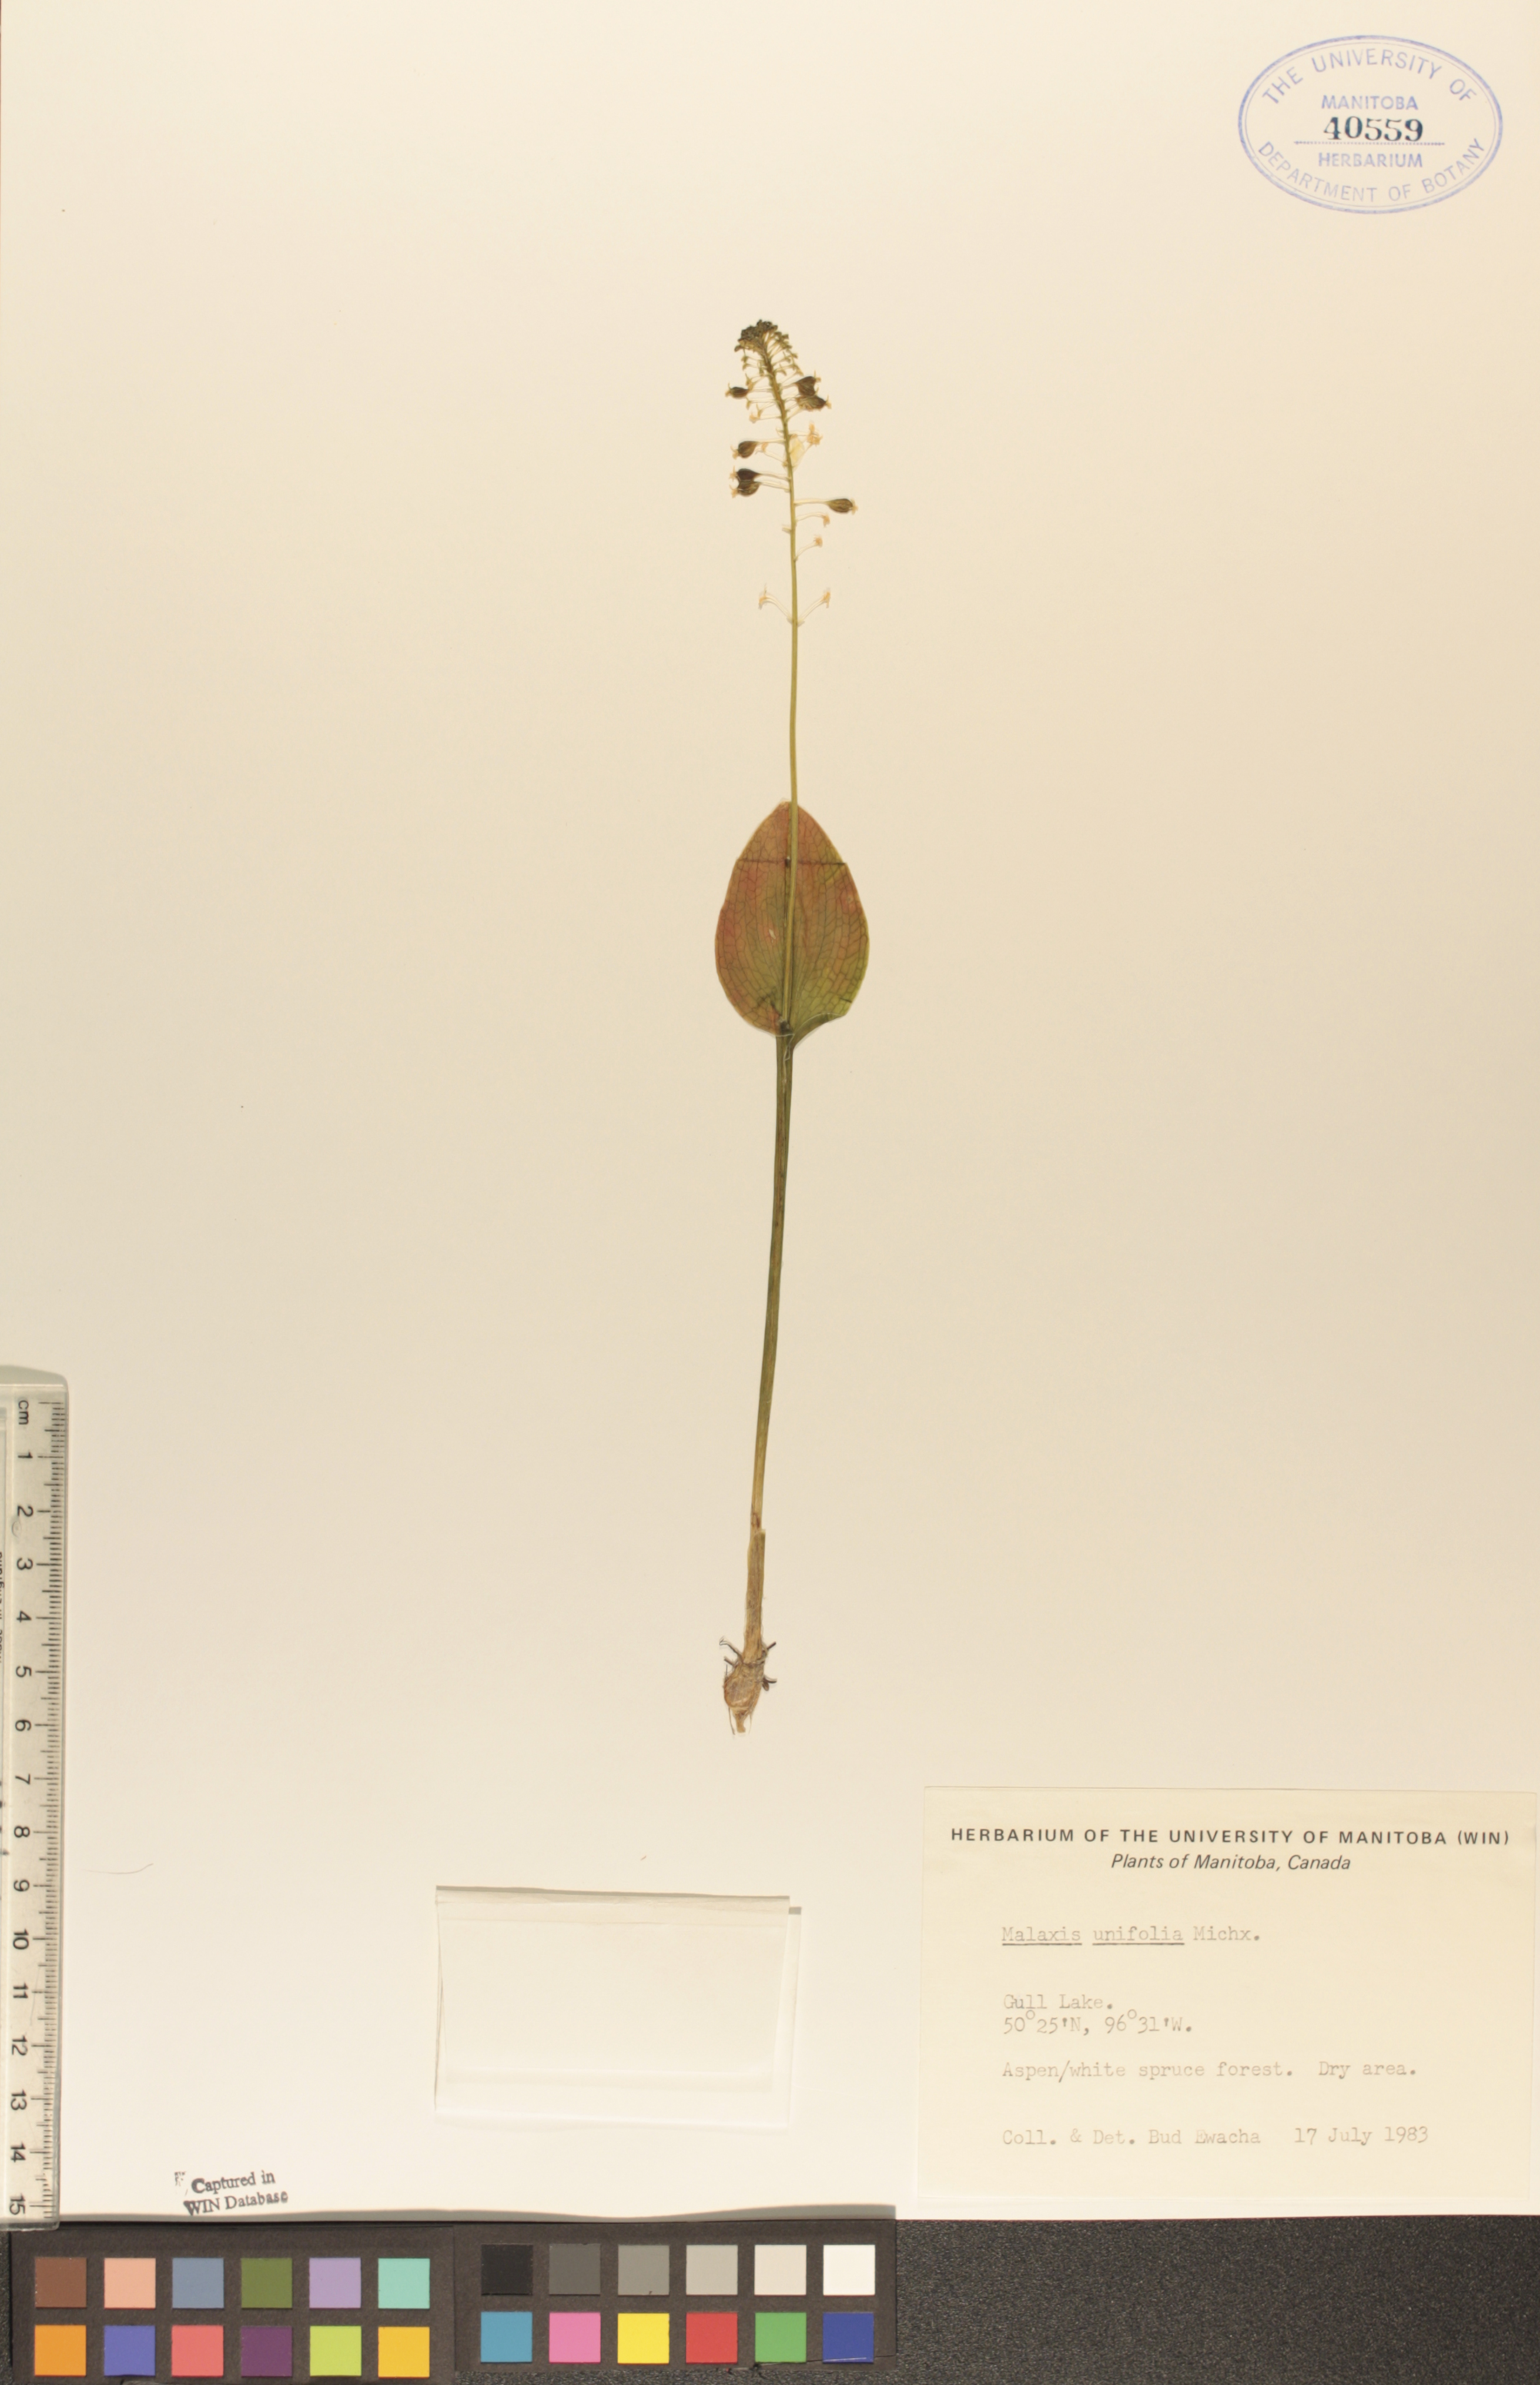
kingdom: Plantae
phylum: Tracheophyta
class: Liliopsida
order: Asparagales
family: Orchidaceae
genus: Malaxis
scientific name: Malaxis unifolia
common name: Green adder's-mouth
